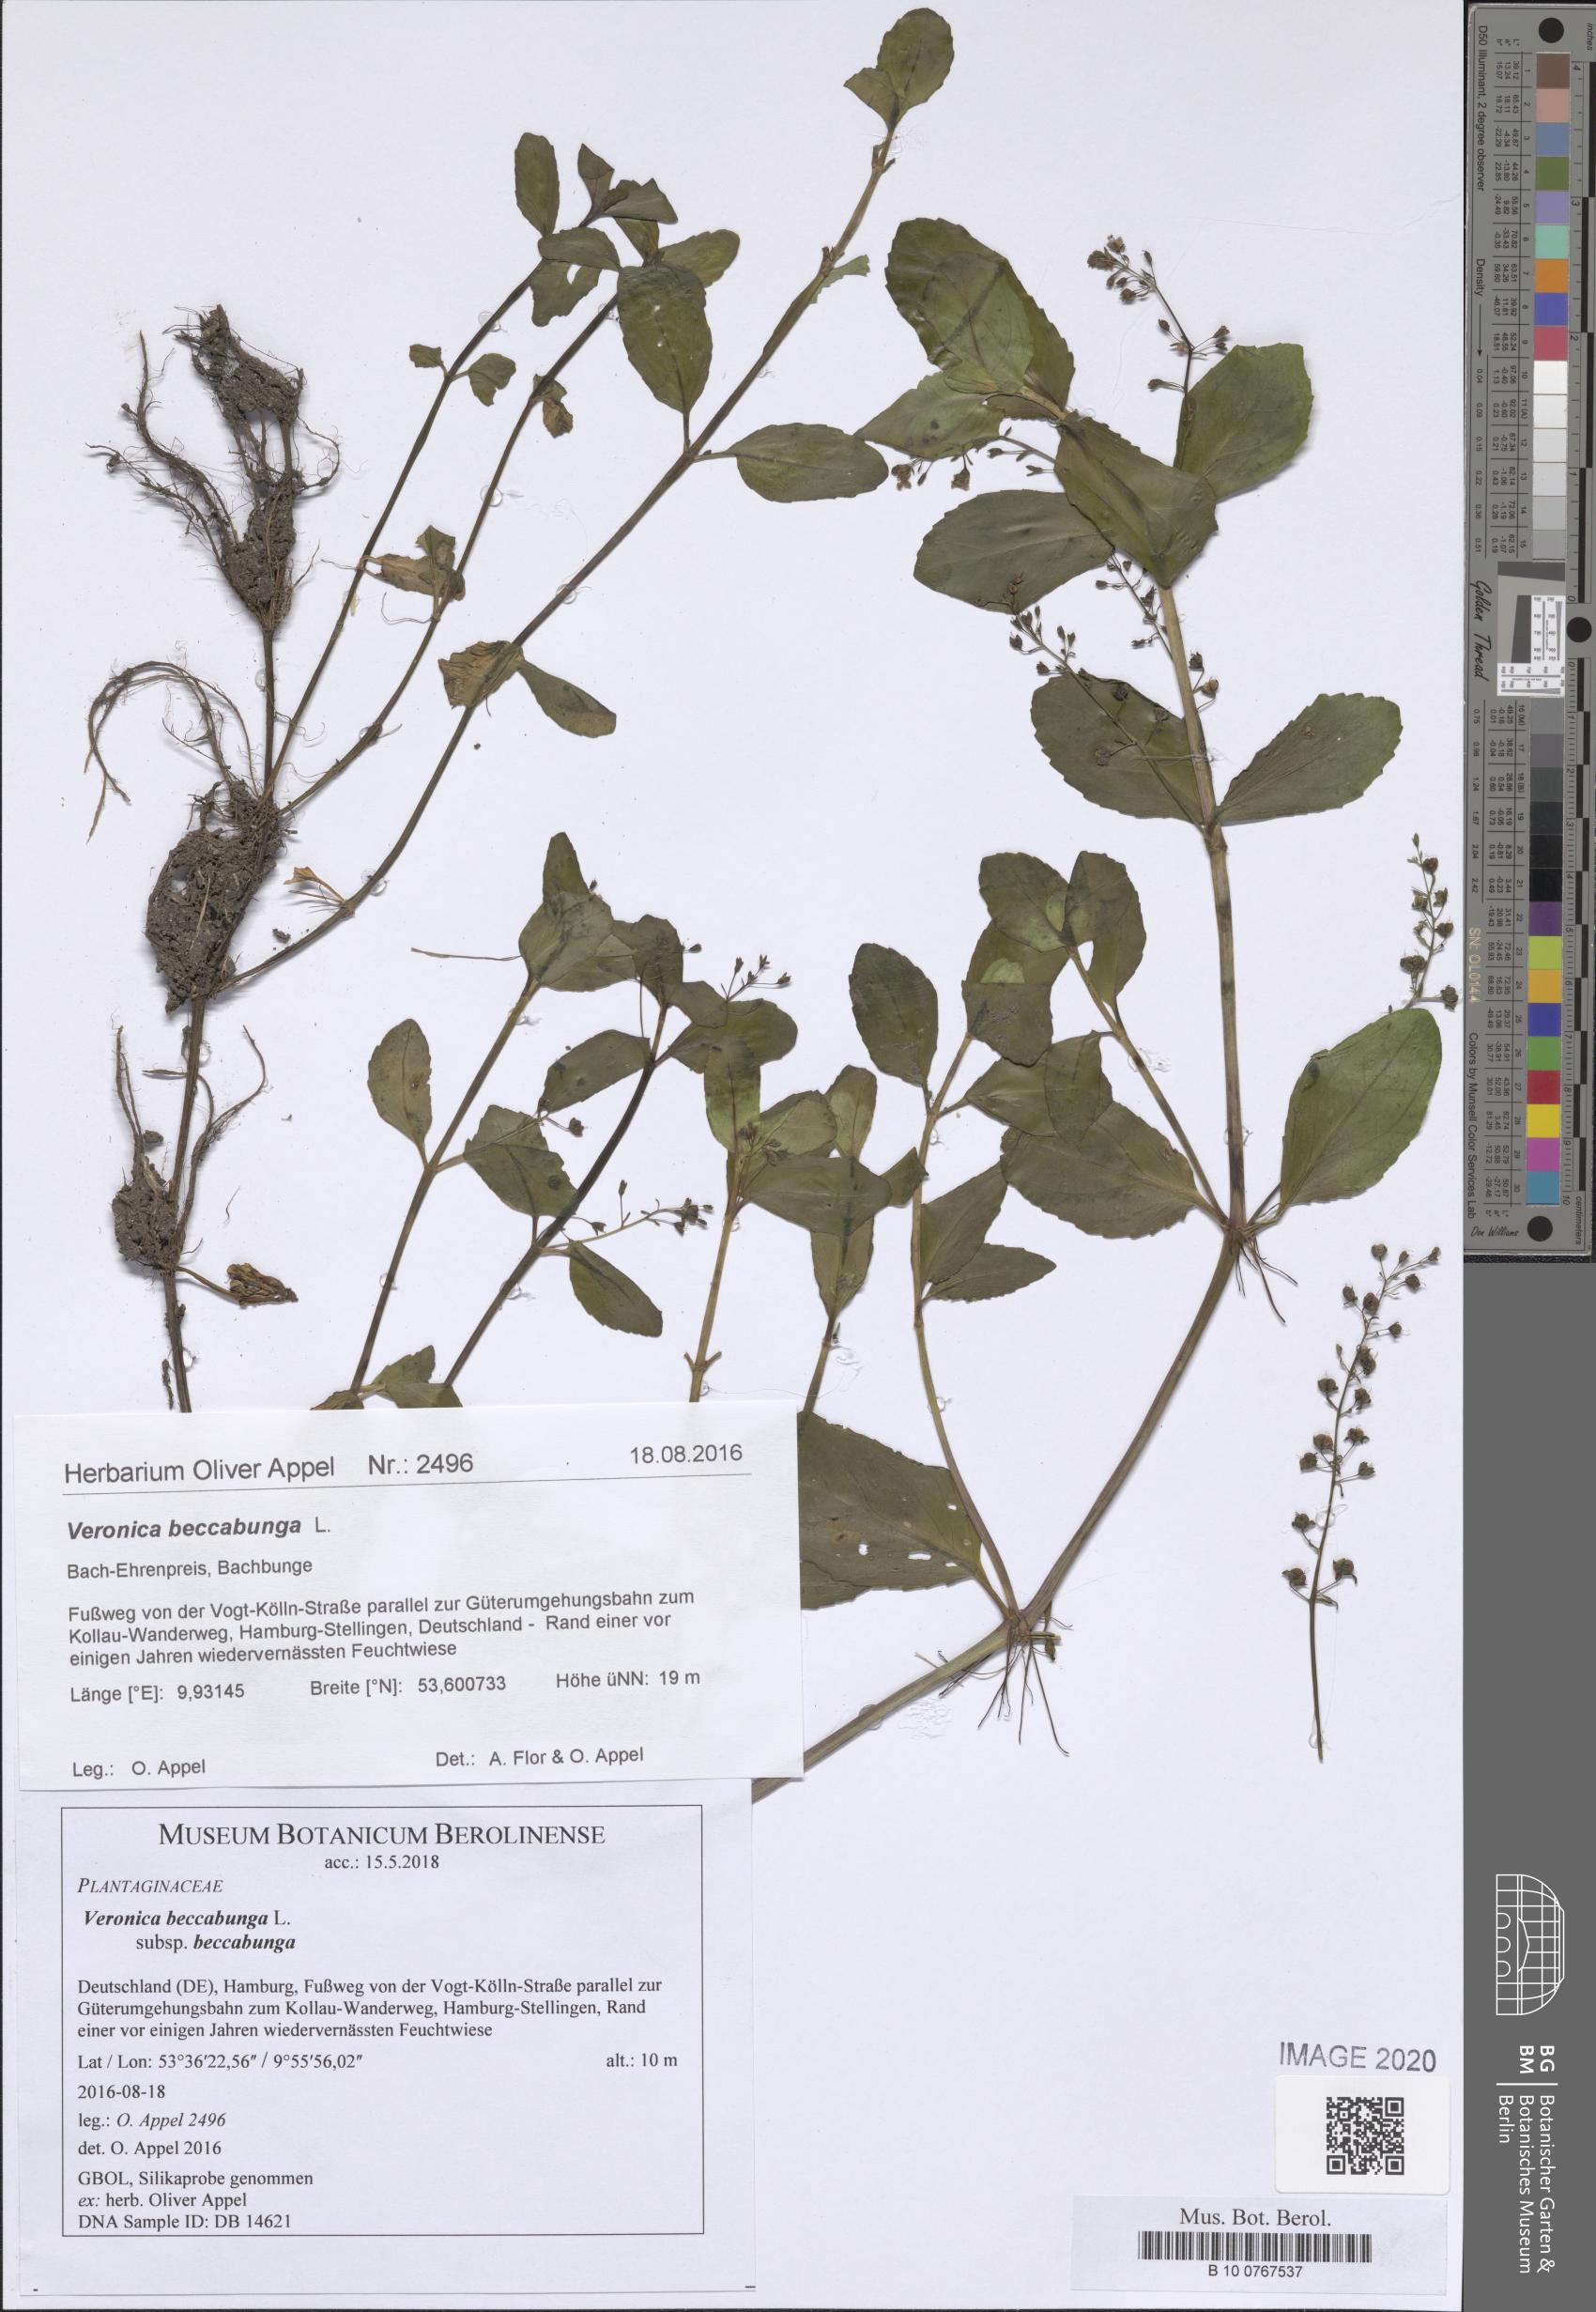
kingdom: Plantae
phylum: Tracheophyta
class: Magnoliopsida
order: Lamiales
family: Plantaginaceae
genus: Veronica
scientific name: Veronica beccabunga
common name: Brooklime
